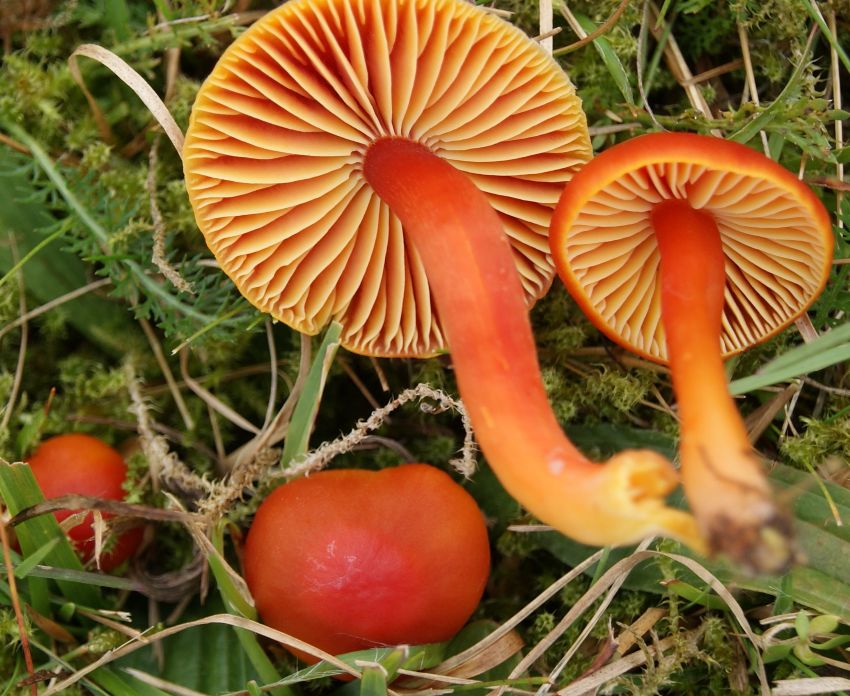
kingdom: Fungi
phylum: Basidiomycota
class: Agaricomycetes
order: Agaricales
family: Hygrophoraceae
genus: Hygrocybe
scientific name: Hygrocybe coccinea
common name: cinnober-vokshat
